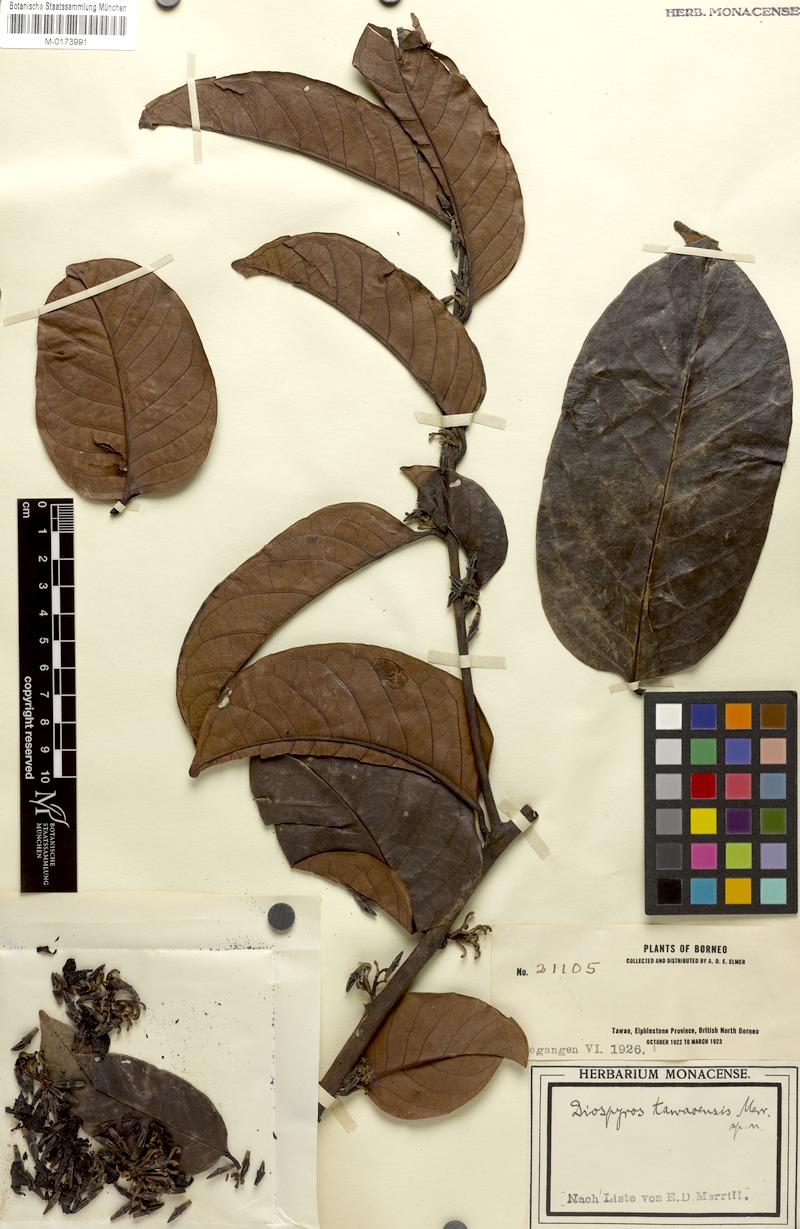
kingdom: Plantae
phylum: Tracheophyta
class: Magnoliopsida
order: Ericales
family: Ebenaceae
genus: Diospyros
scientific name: Diospyros borneensis
